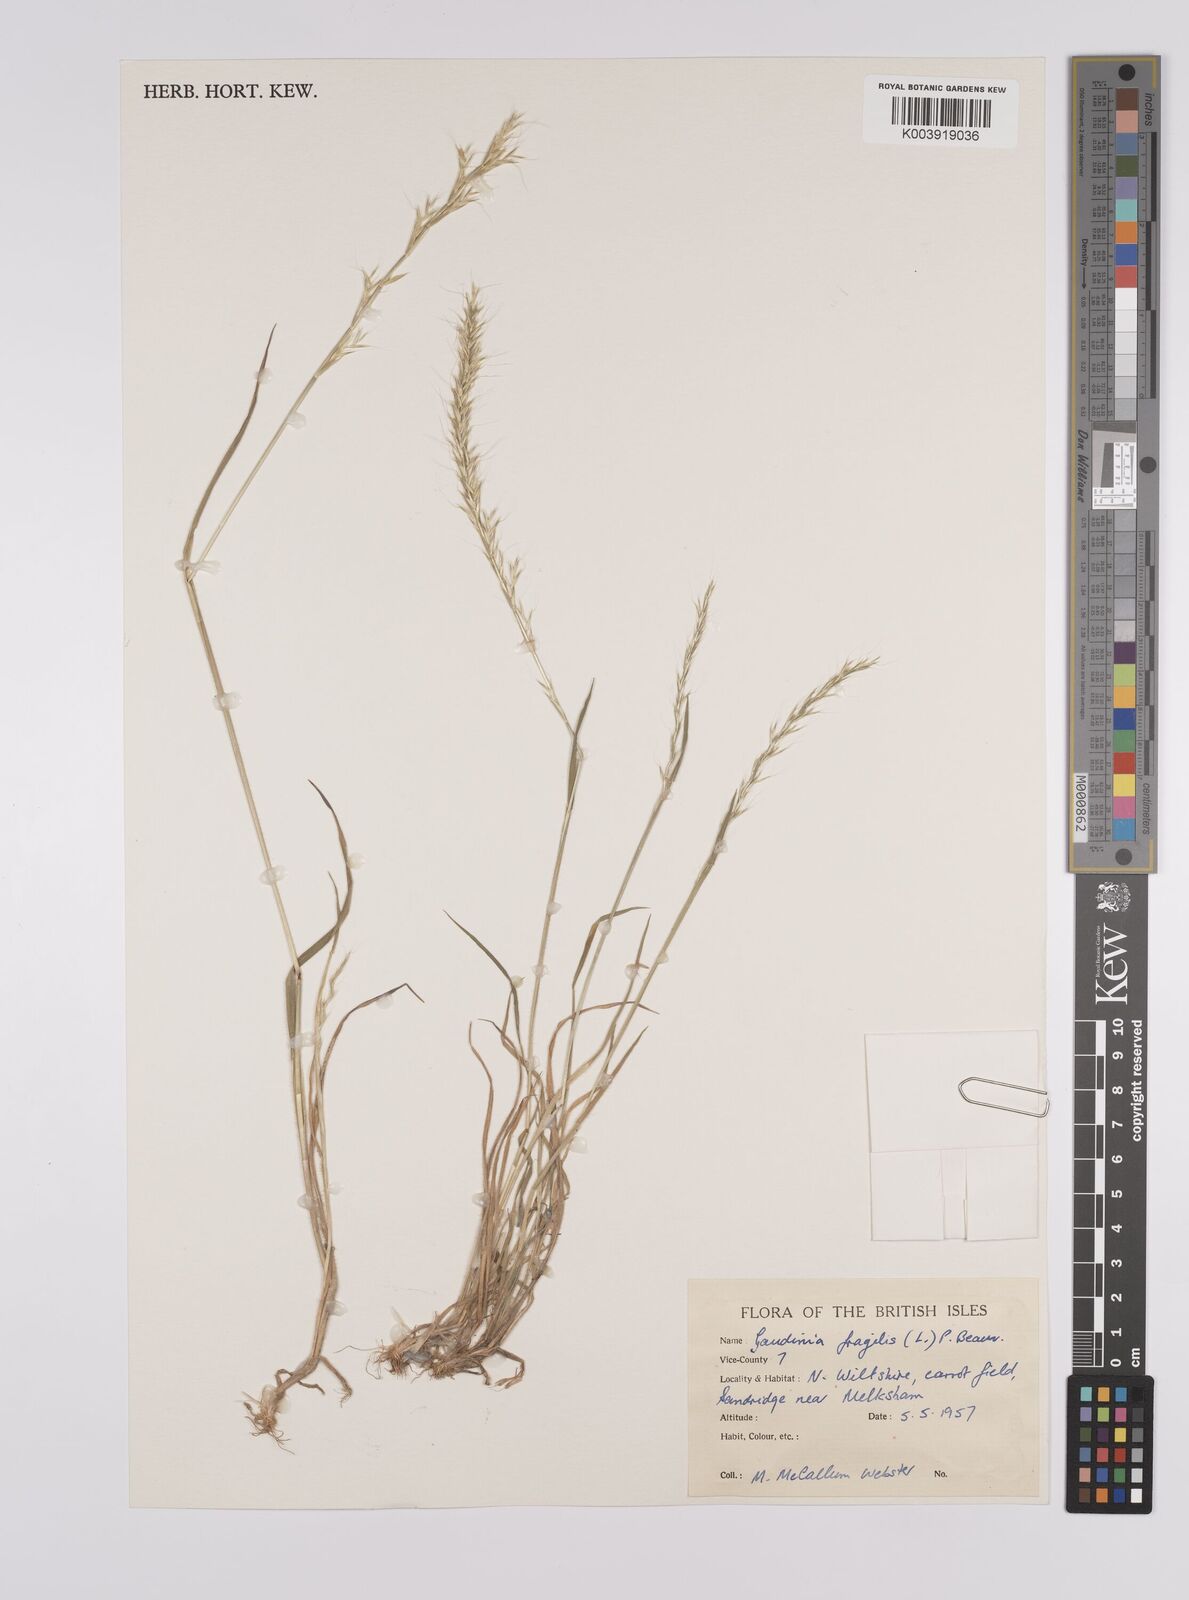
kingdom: Plantae
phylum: Tracheophyta
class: Liliopsida
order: Poales
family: Poaceae
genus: Gaudinia
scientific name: Gaudinia fragilis
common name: French oat-grass
